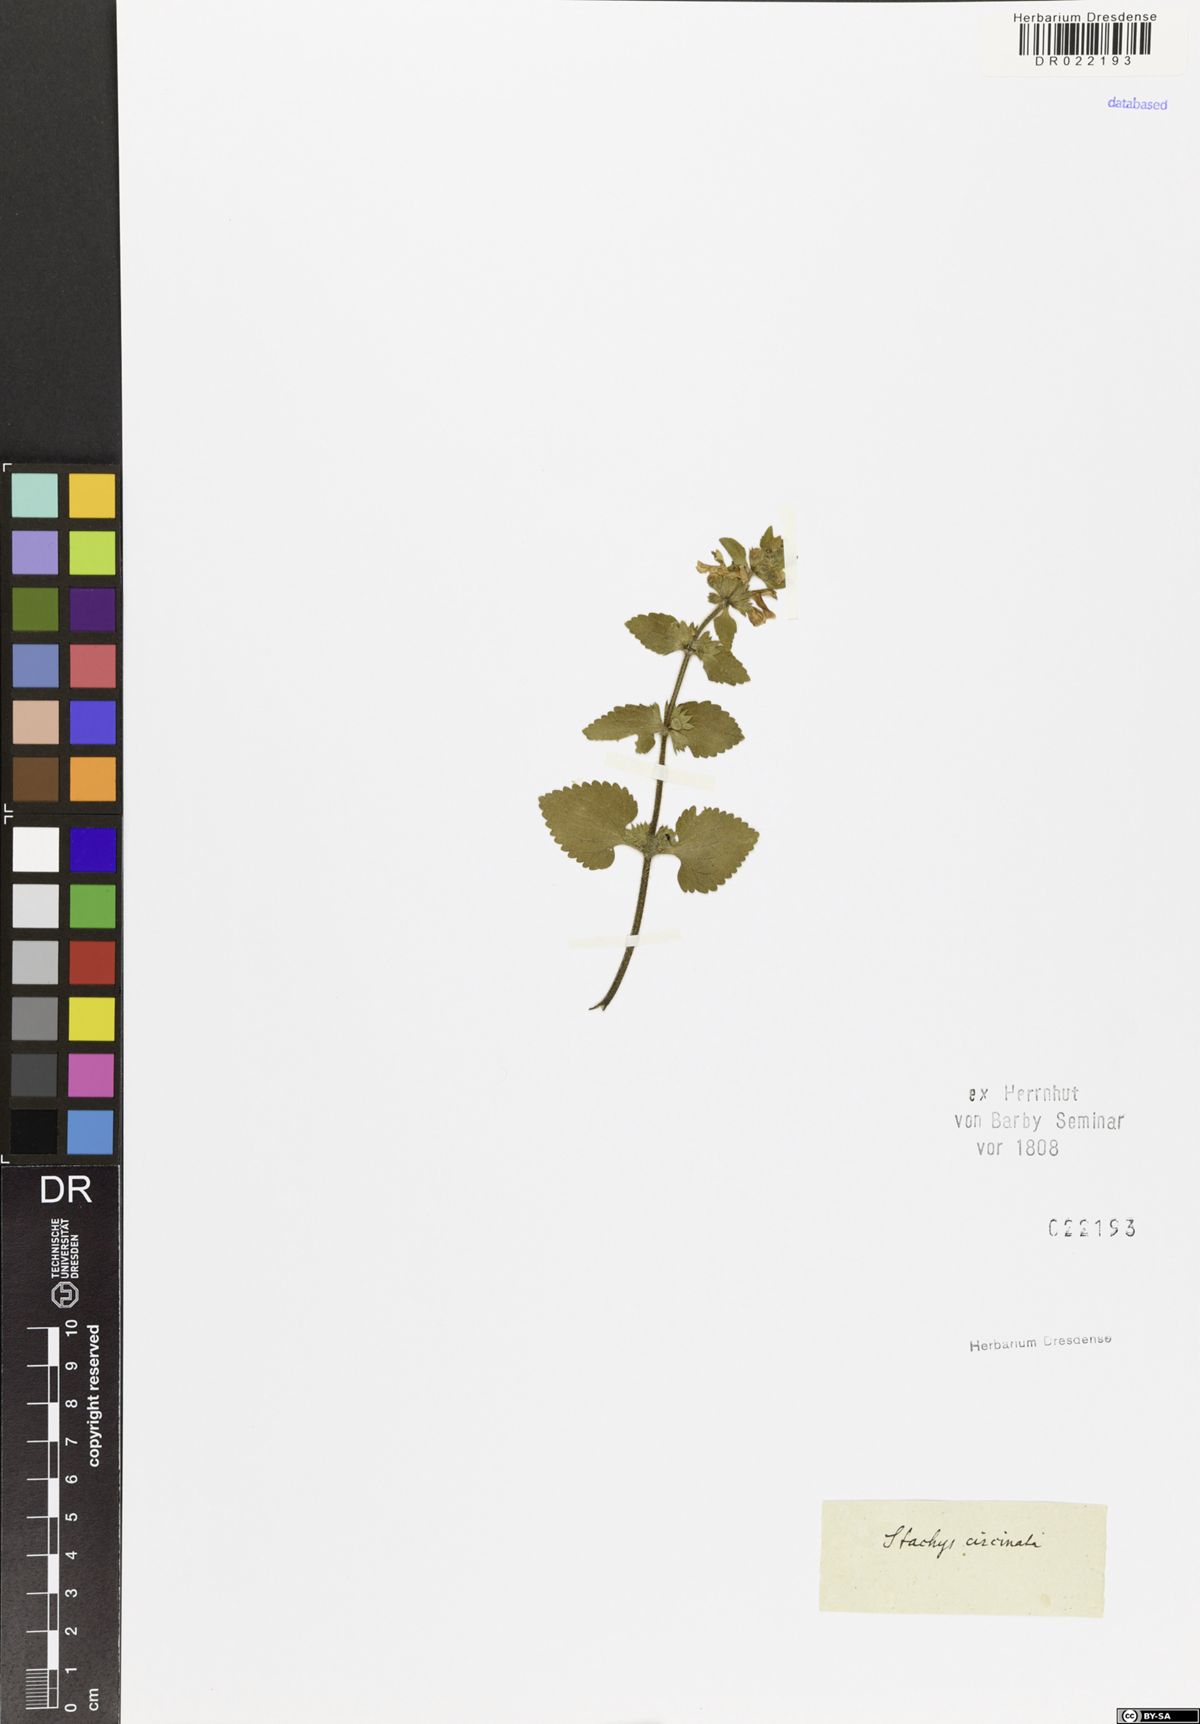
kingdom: Plantae
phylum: Tracheophyta
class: Magnoliopsida
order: Lamiales
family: Lamiaceae
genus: Stachys
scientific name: Stachys circinata
